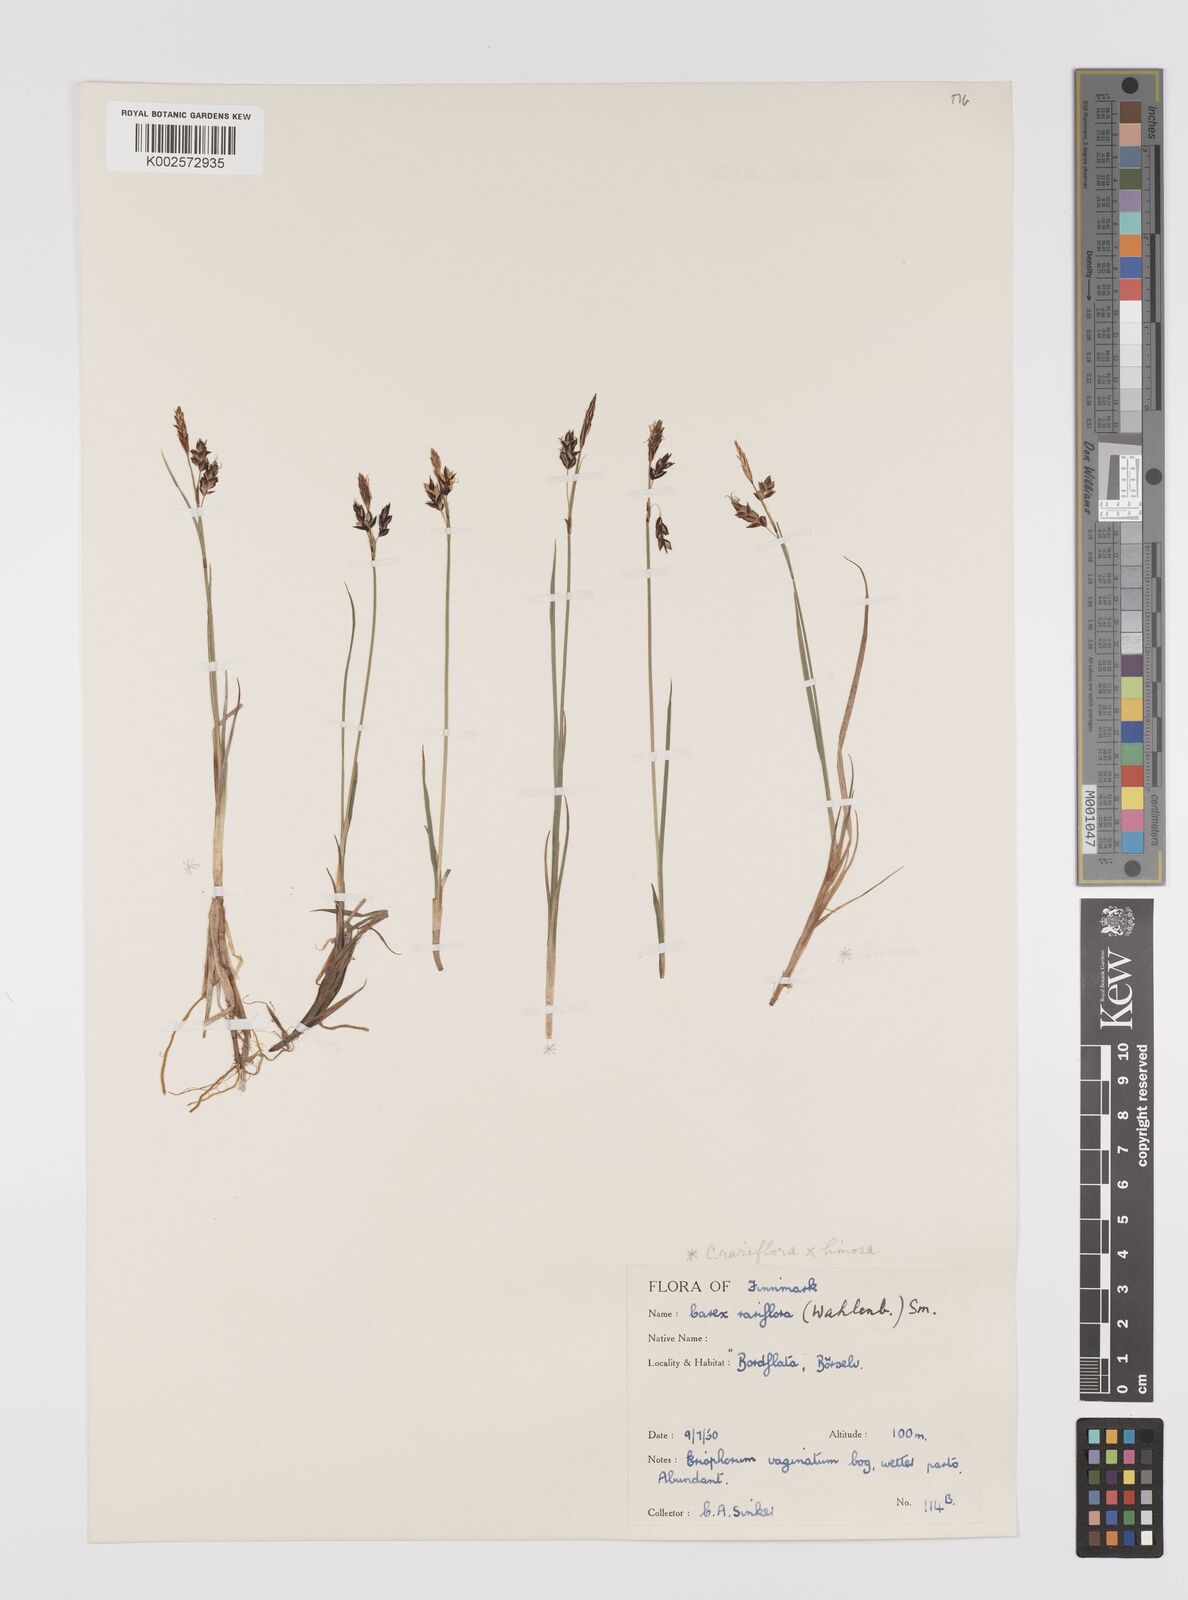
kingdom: Plantae
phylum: Tracheophyta
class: Liliopsida
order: Poales
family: Cyperaceae
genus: Carex
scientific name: Carex rariflora
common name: Loose-flowered alpine sedge
